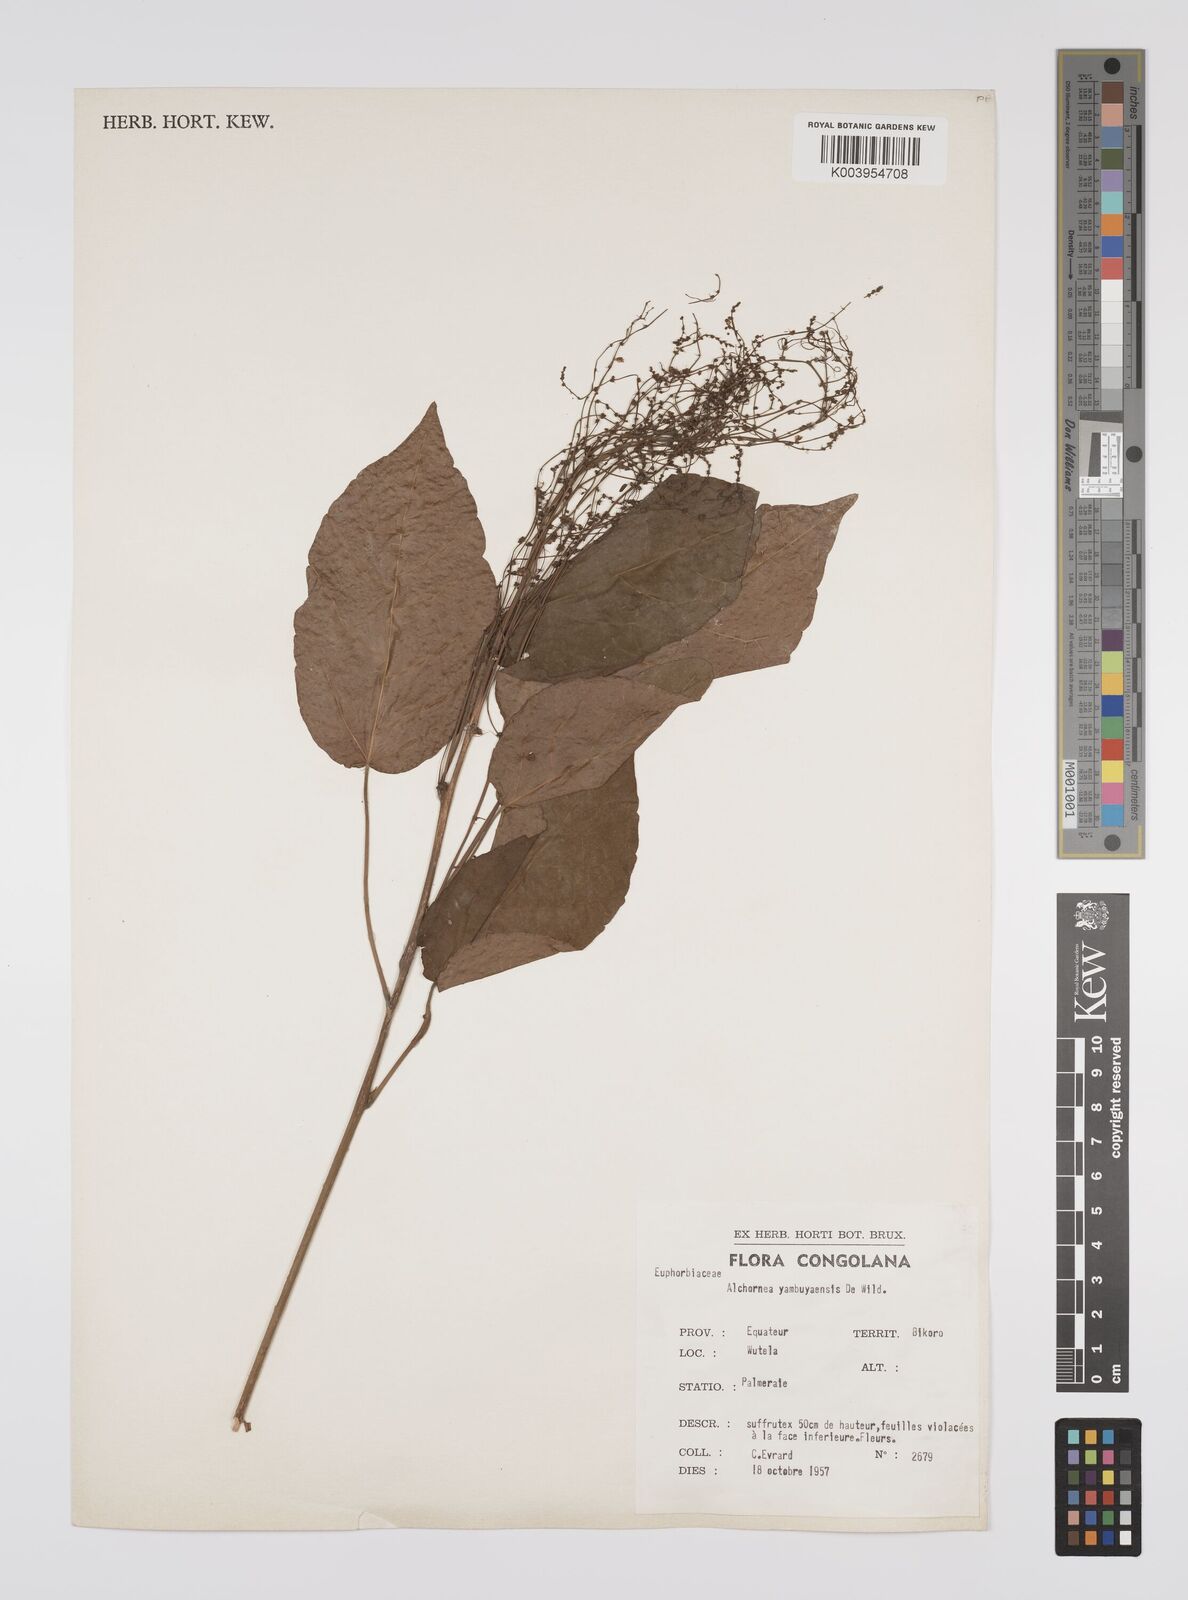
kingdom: Plantae
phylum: Tracheophyta
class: Magnoliopsida
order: Malpighiales
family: Euphorbiaceae
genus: Alchornea
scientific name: Alchornea yambuyaensis
